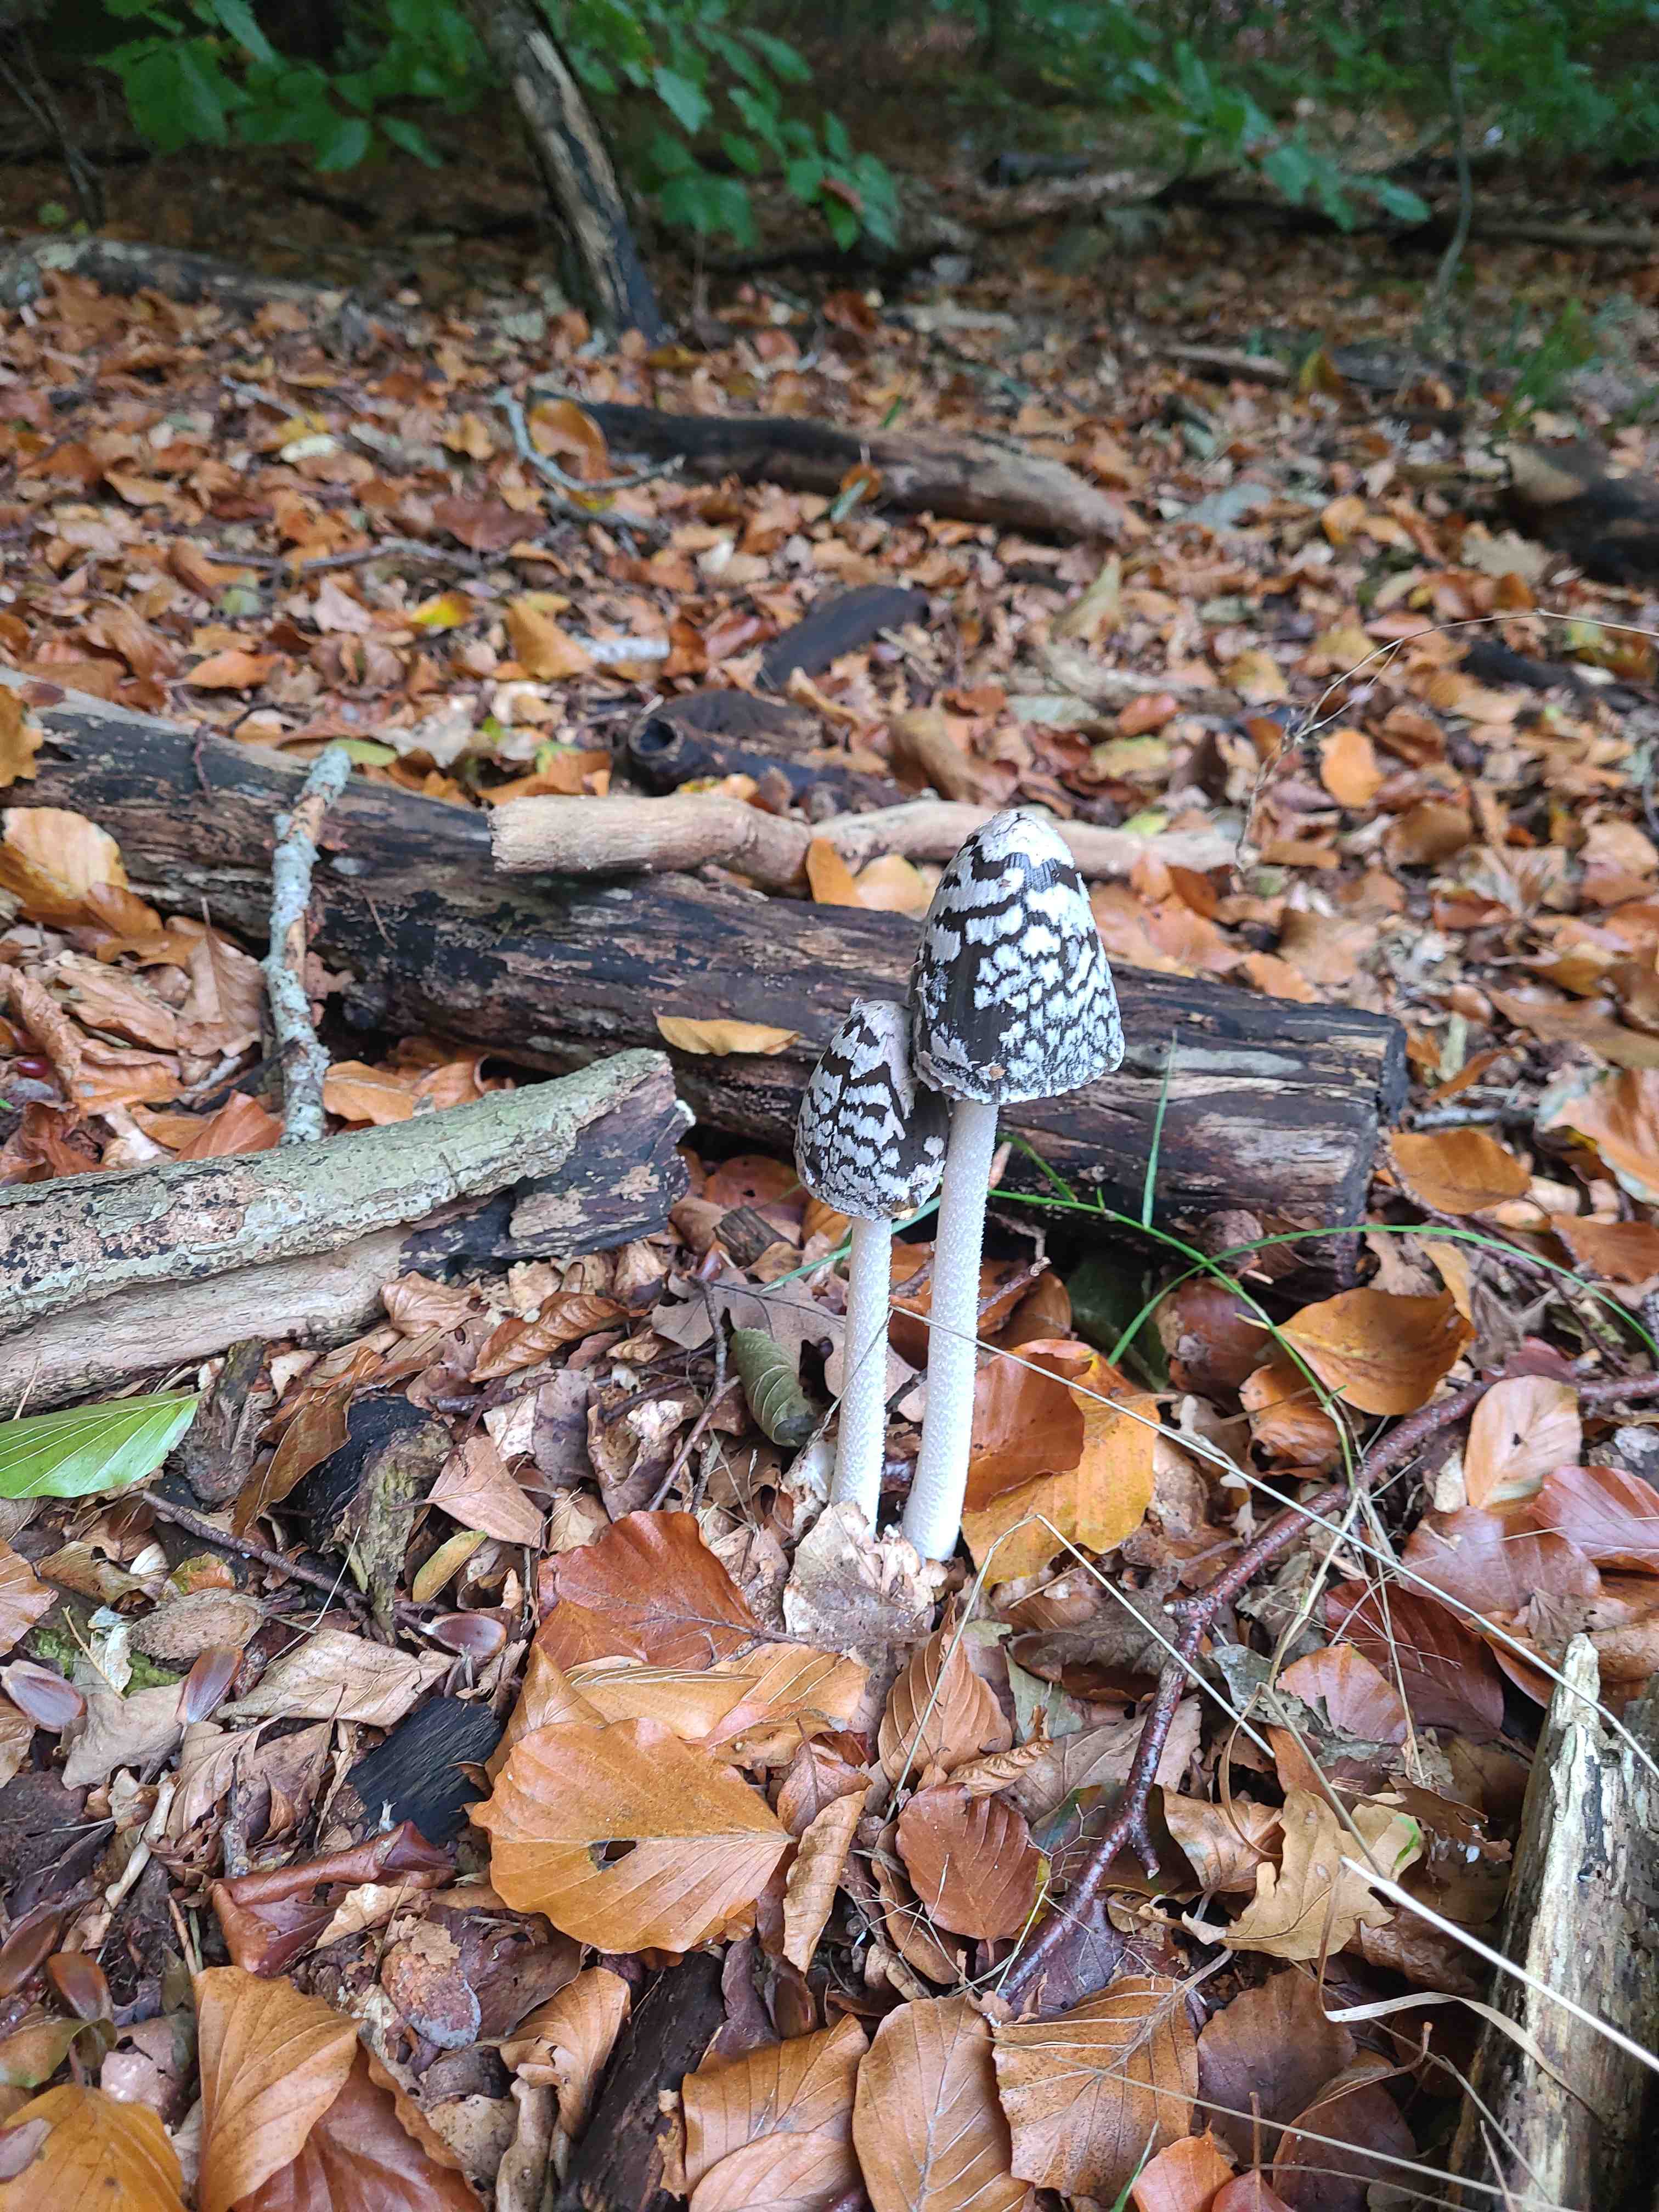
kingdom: Fungi
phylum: Basidiomycota
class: Agaricomycetes
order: Agaricales
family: Psathyrellaceae
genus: Coprinopsis
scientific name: Coprinopsis picacea
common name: skade-blækhat
